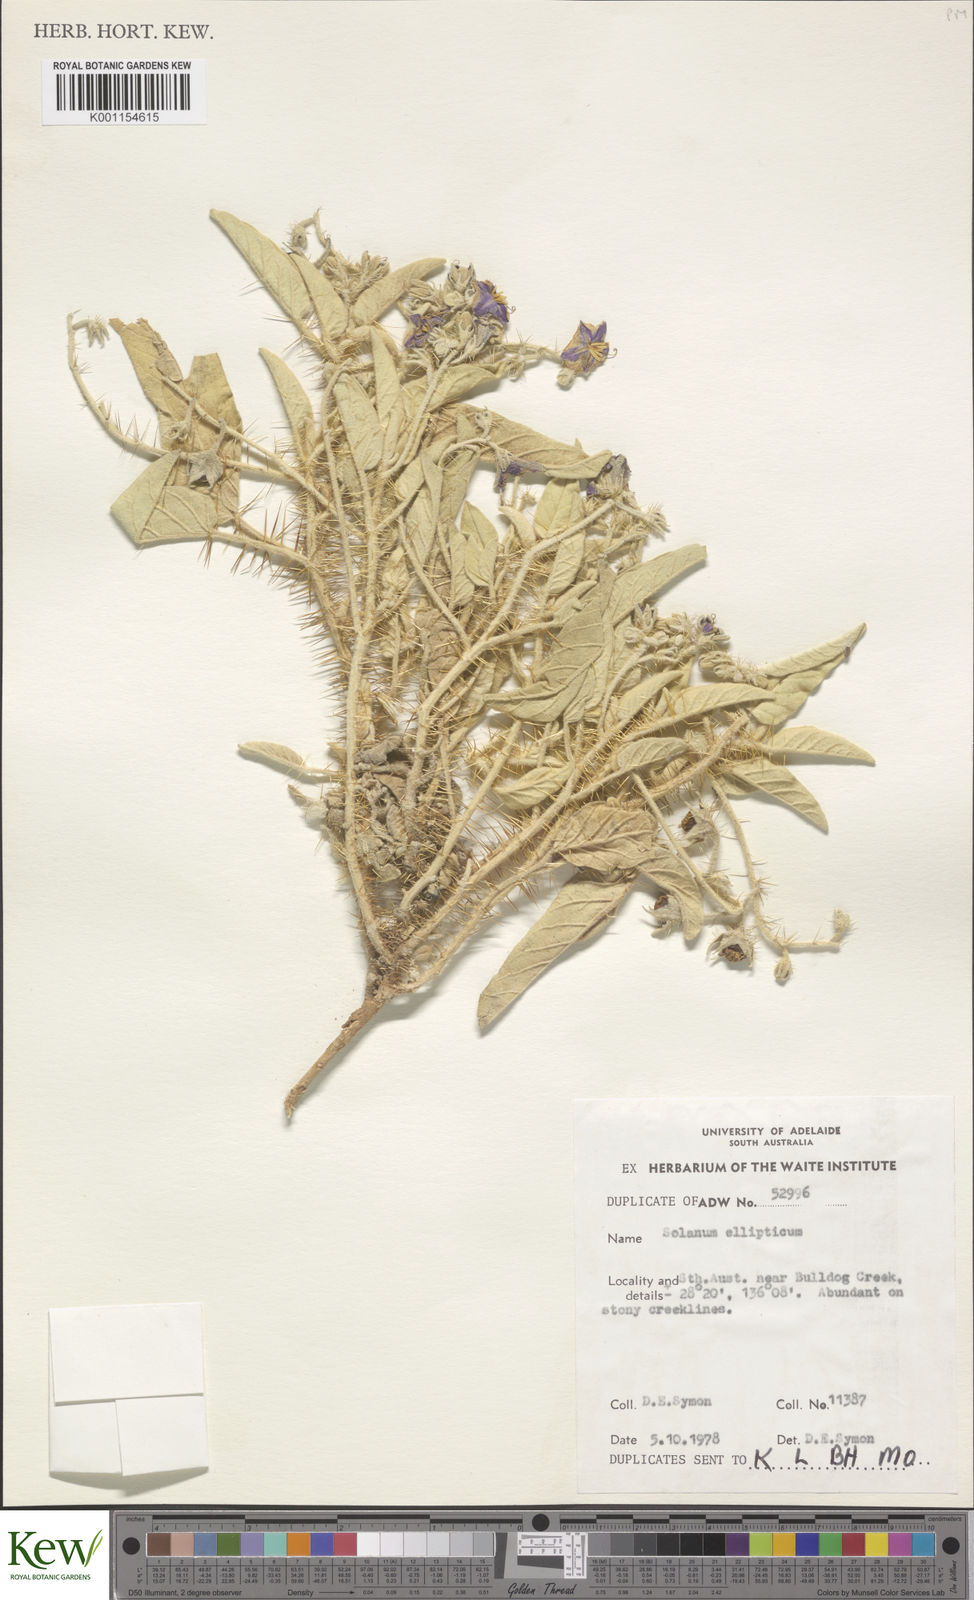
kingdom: Plantae
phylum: Tracheophyta
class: Magnoliopsida
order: Solanales
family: Solanaceae
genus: Solanum
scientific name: Solanum ellipticum
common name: Potato-bush
